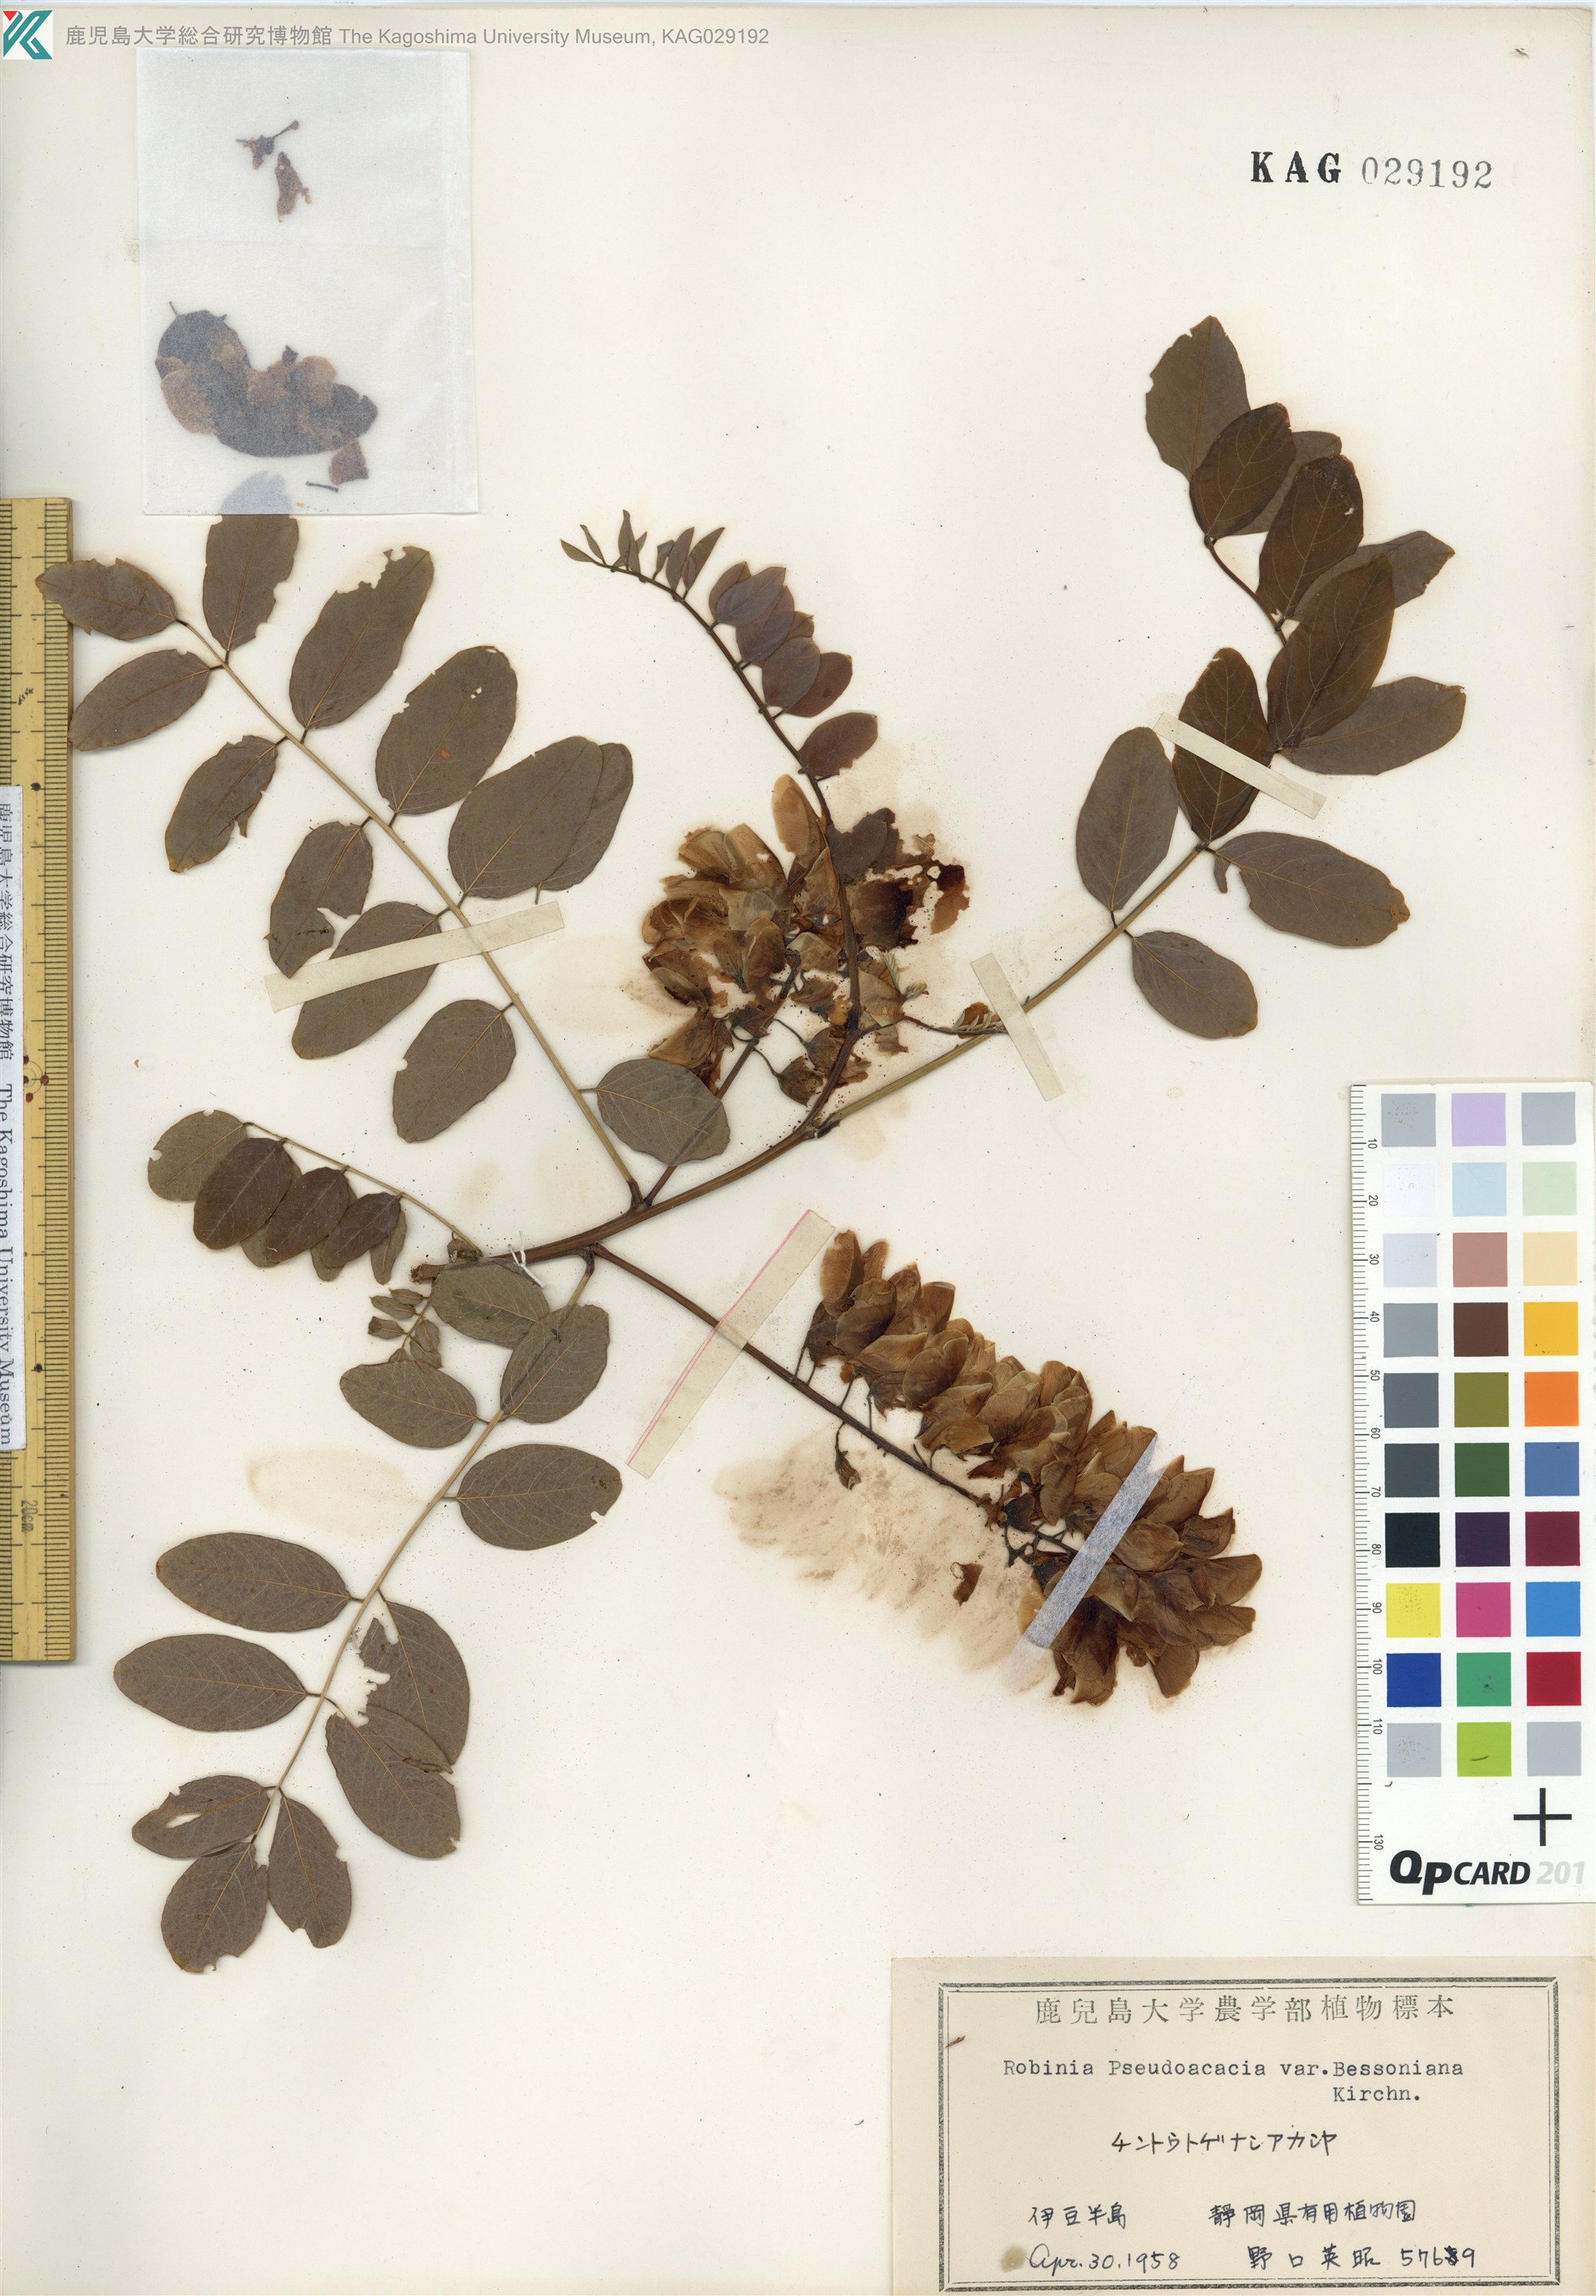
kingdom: Plantae
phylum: Tracheophyta
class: Magnoliopsida
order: Fabales
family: Fabaceae
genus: Robinia
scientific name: Robinia pseudoacacia
